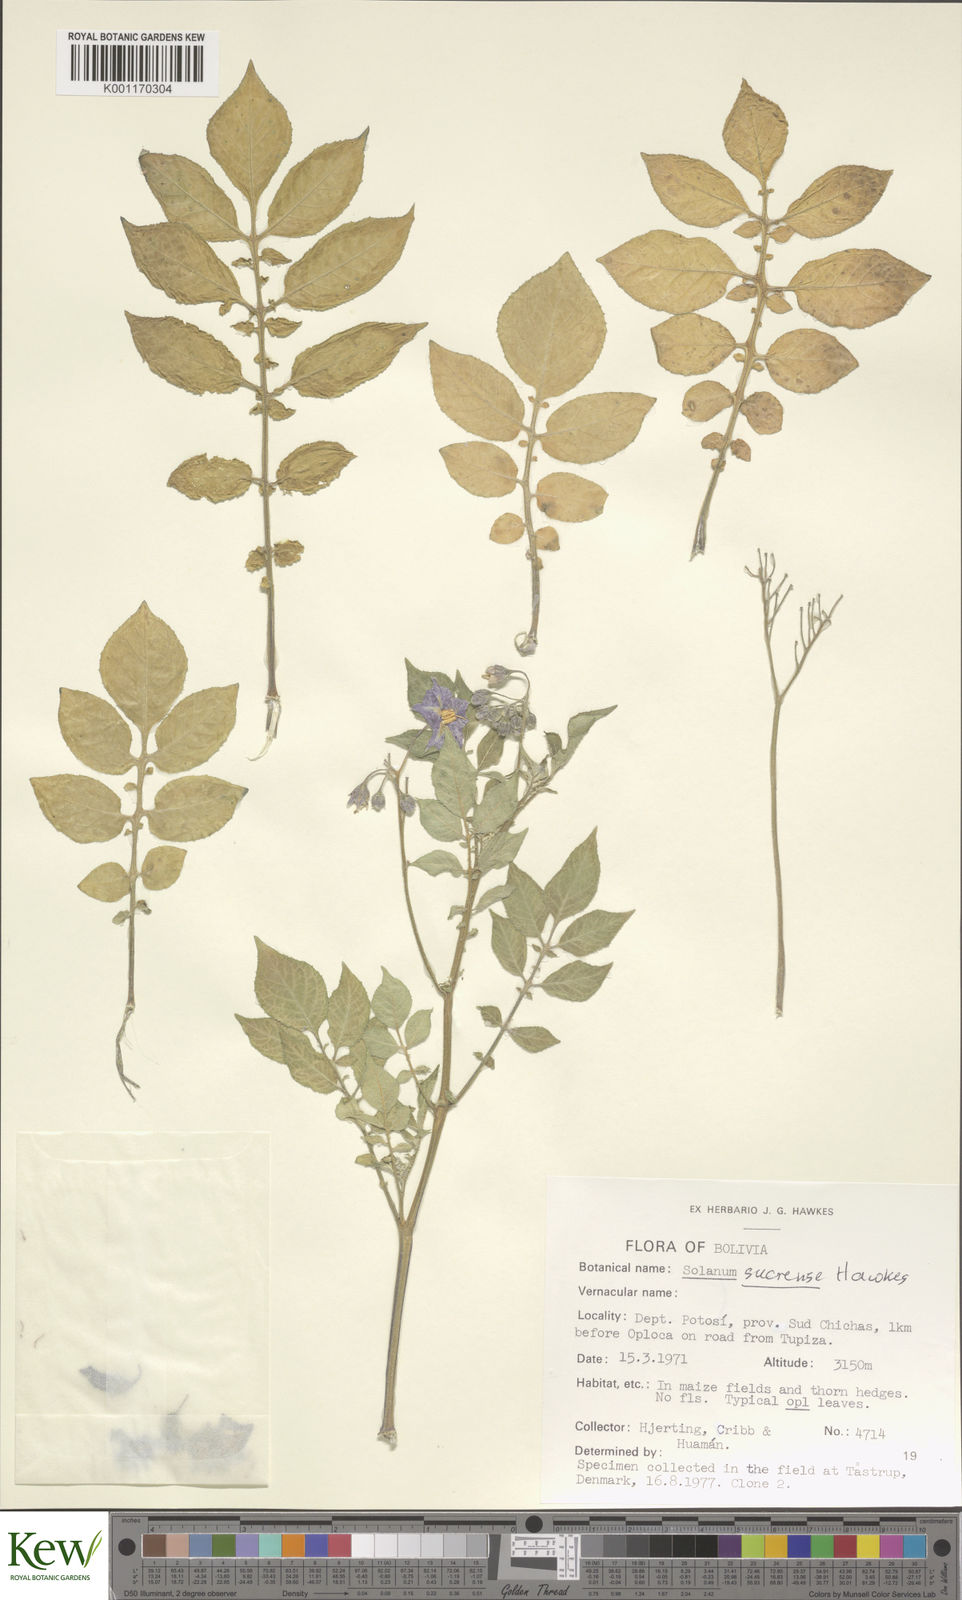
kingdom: Plantae
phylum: Tracheophyta
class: Magnoliopsida
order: Solanales
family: Solanaceae
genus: Solanum
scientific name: Solanum brevicaule
